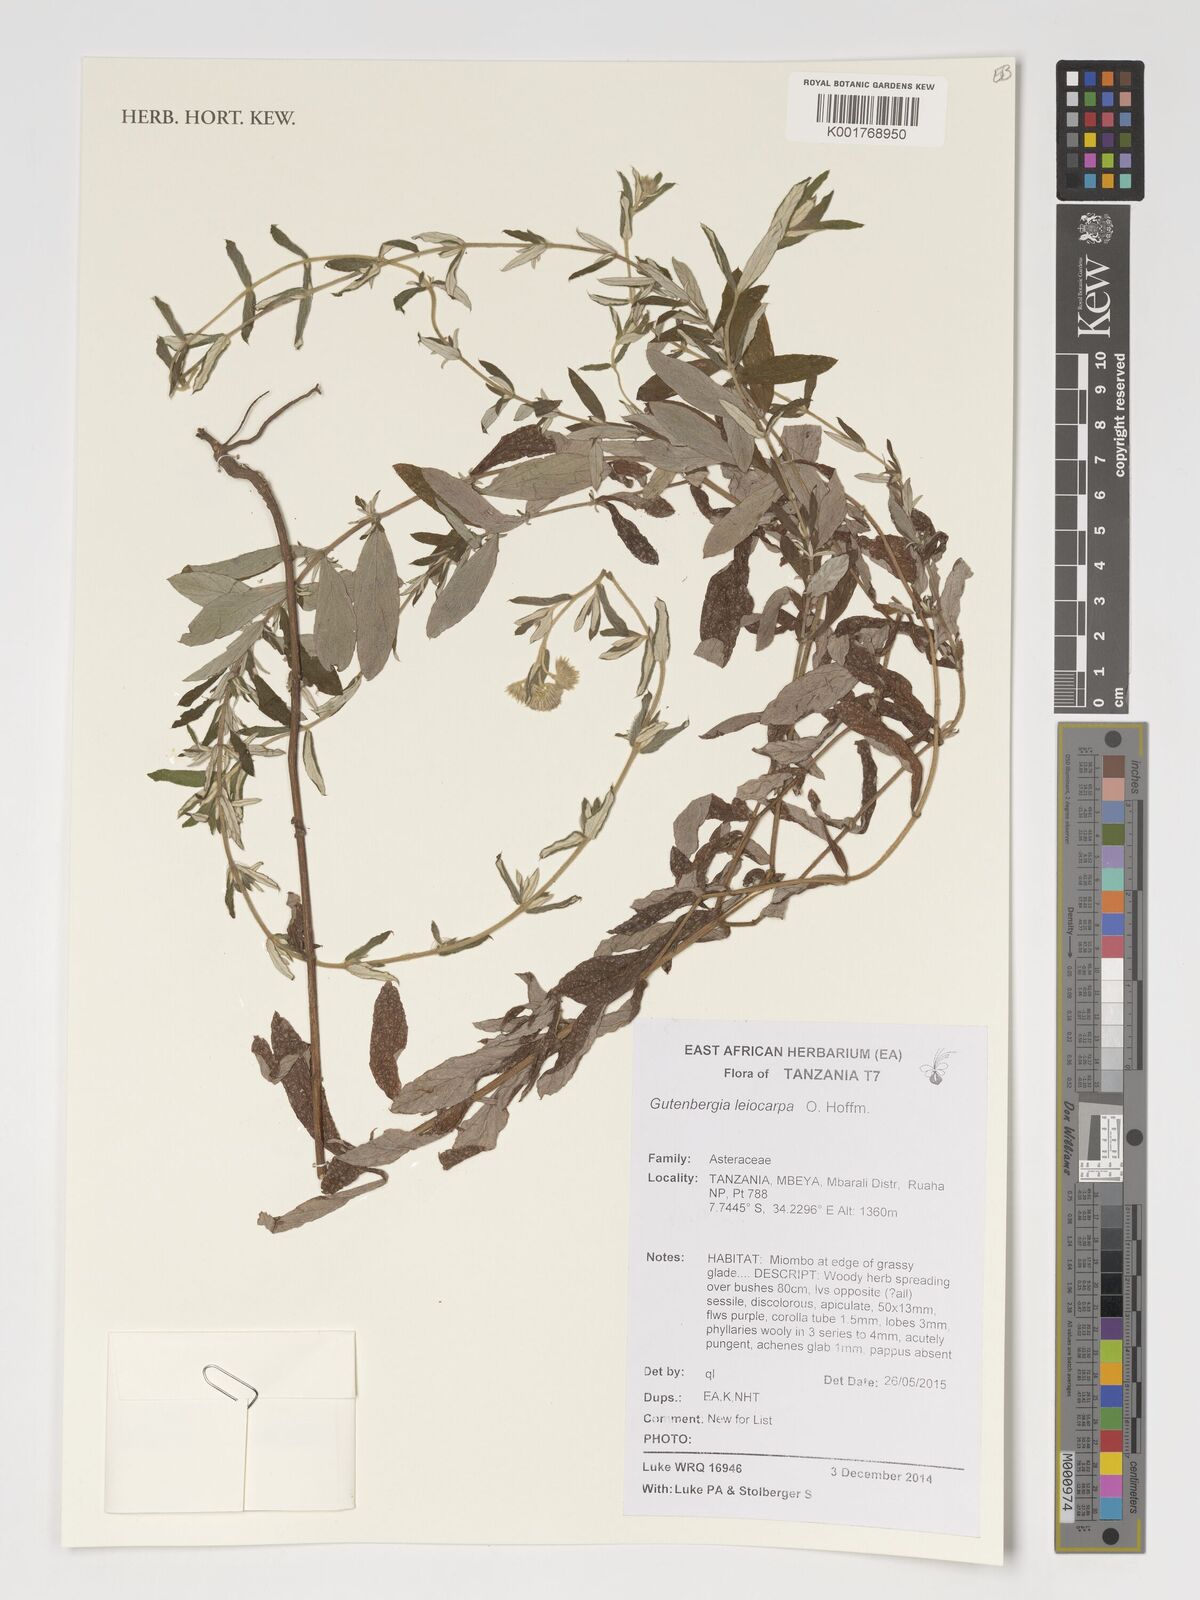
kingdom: Plantae
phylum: Tracheophyta
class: Magnoliopsida
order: Asterales
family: Asteraceae
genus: Gutenbergia
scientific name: Gutenbergia leiocarpa
